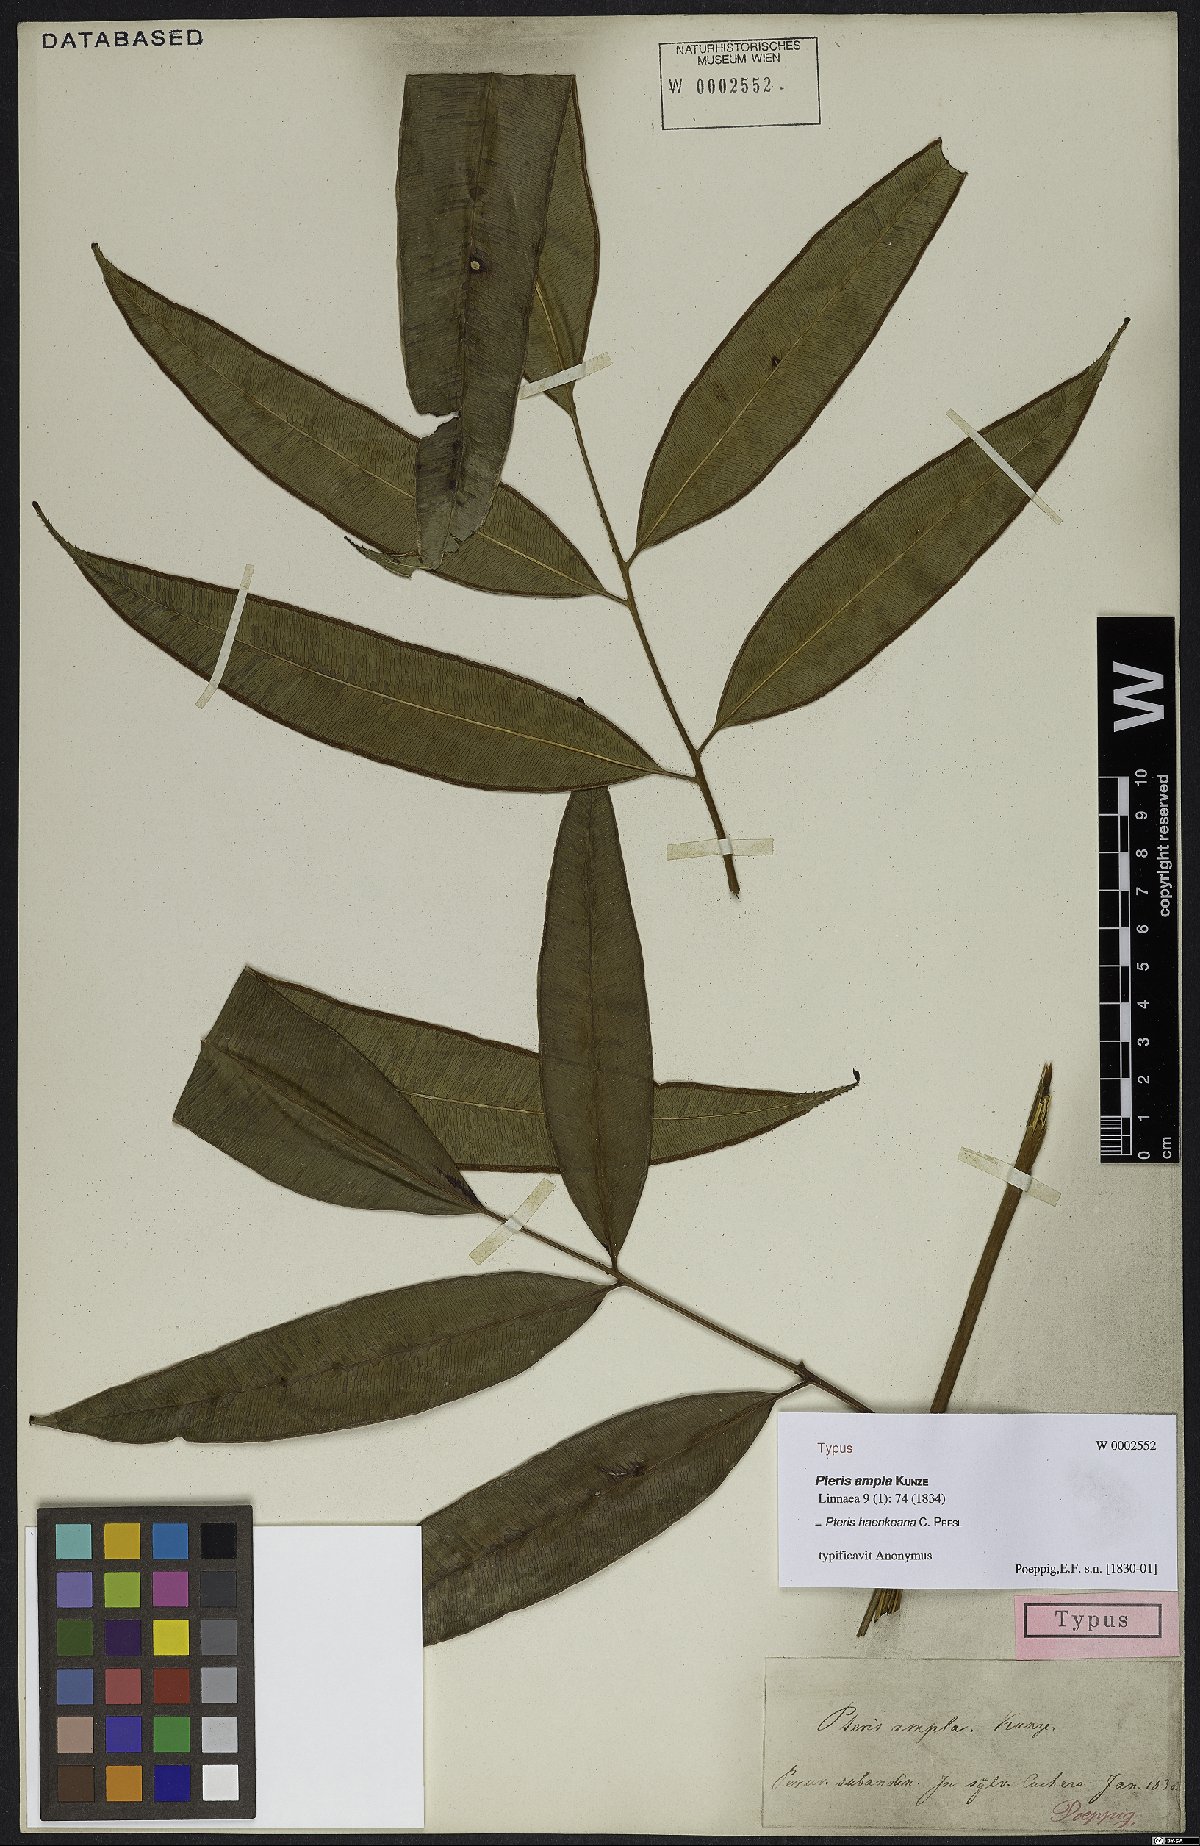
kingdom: Plantae
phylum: Tracheophyta
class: Polypodiopsida
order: Polypodiales
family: Pteridaceae
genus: Pteris
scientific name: Pteris haenkeana
